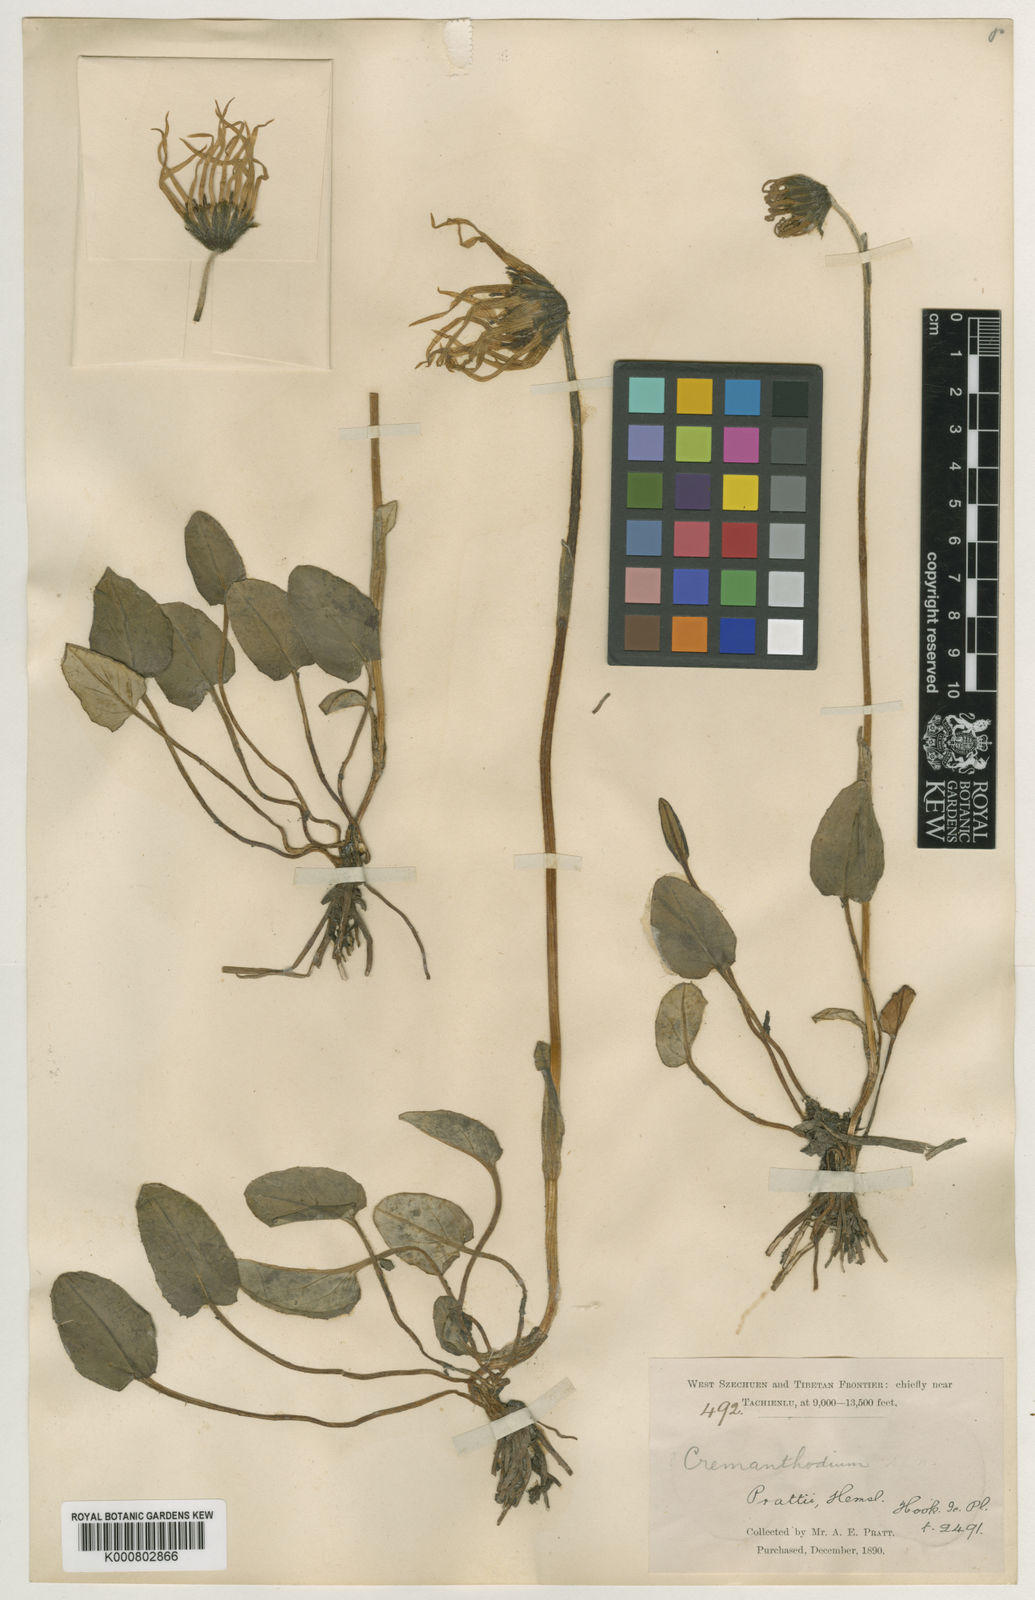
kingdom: Plantae
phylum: Tracheophyta
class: Magnoliopsida
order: Asterales
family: Asteraceae
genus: Cremanthodium
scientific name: Cremanthodium prattii
